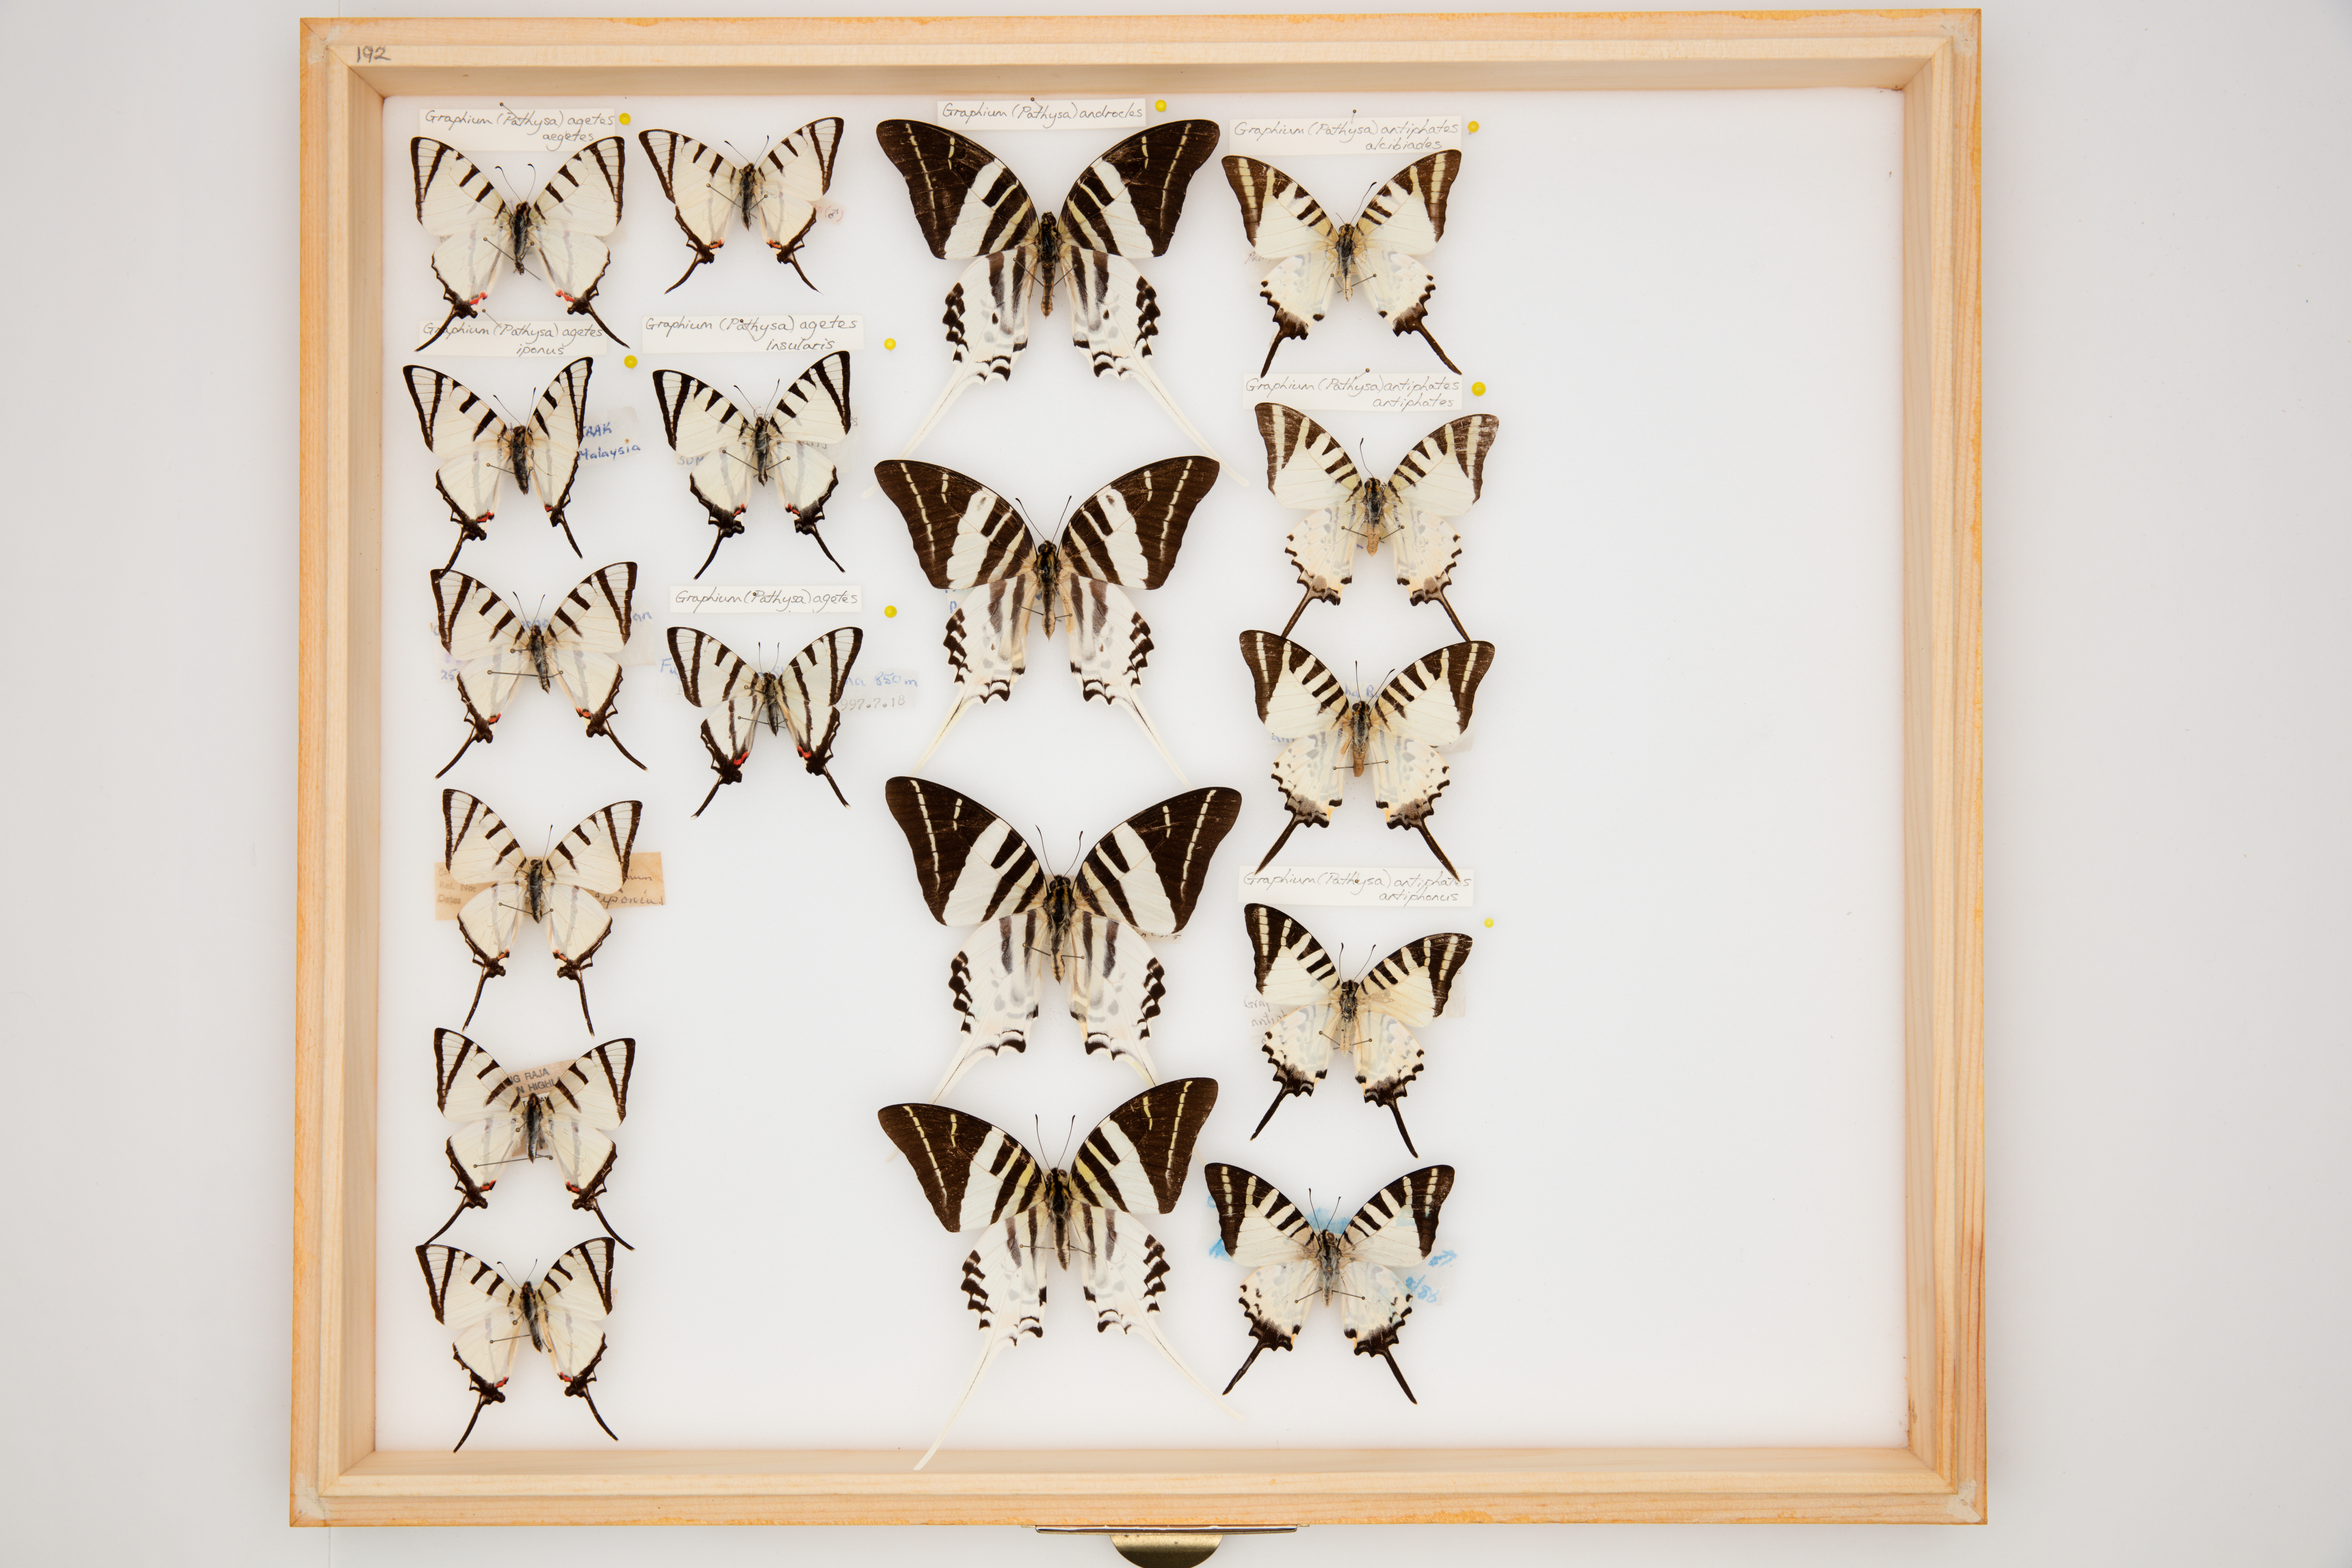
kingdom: Animalia
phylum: Arthropoda
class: Insecta
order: Lepidoptera
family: Papilionidae
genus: Graphium
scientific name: Graphium androcles
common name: Giant swordtail
